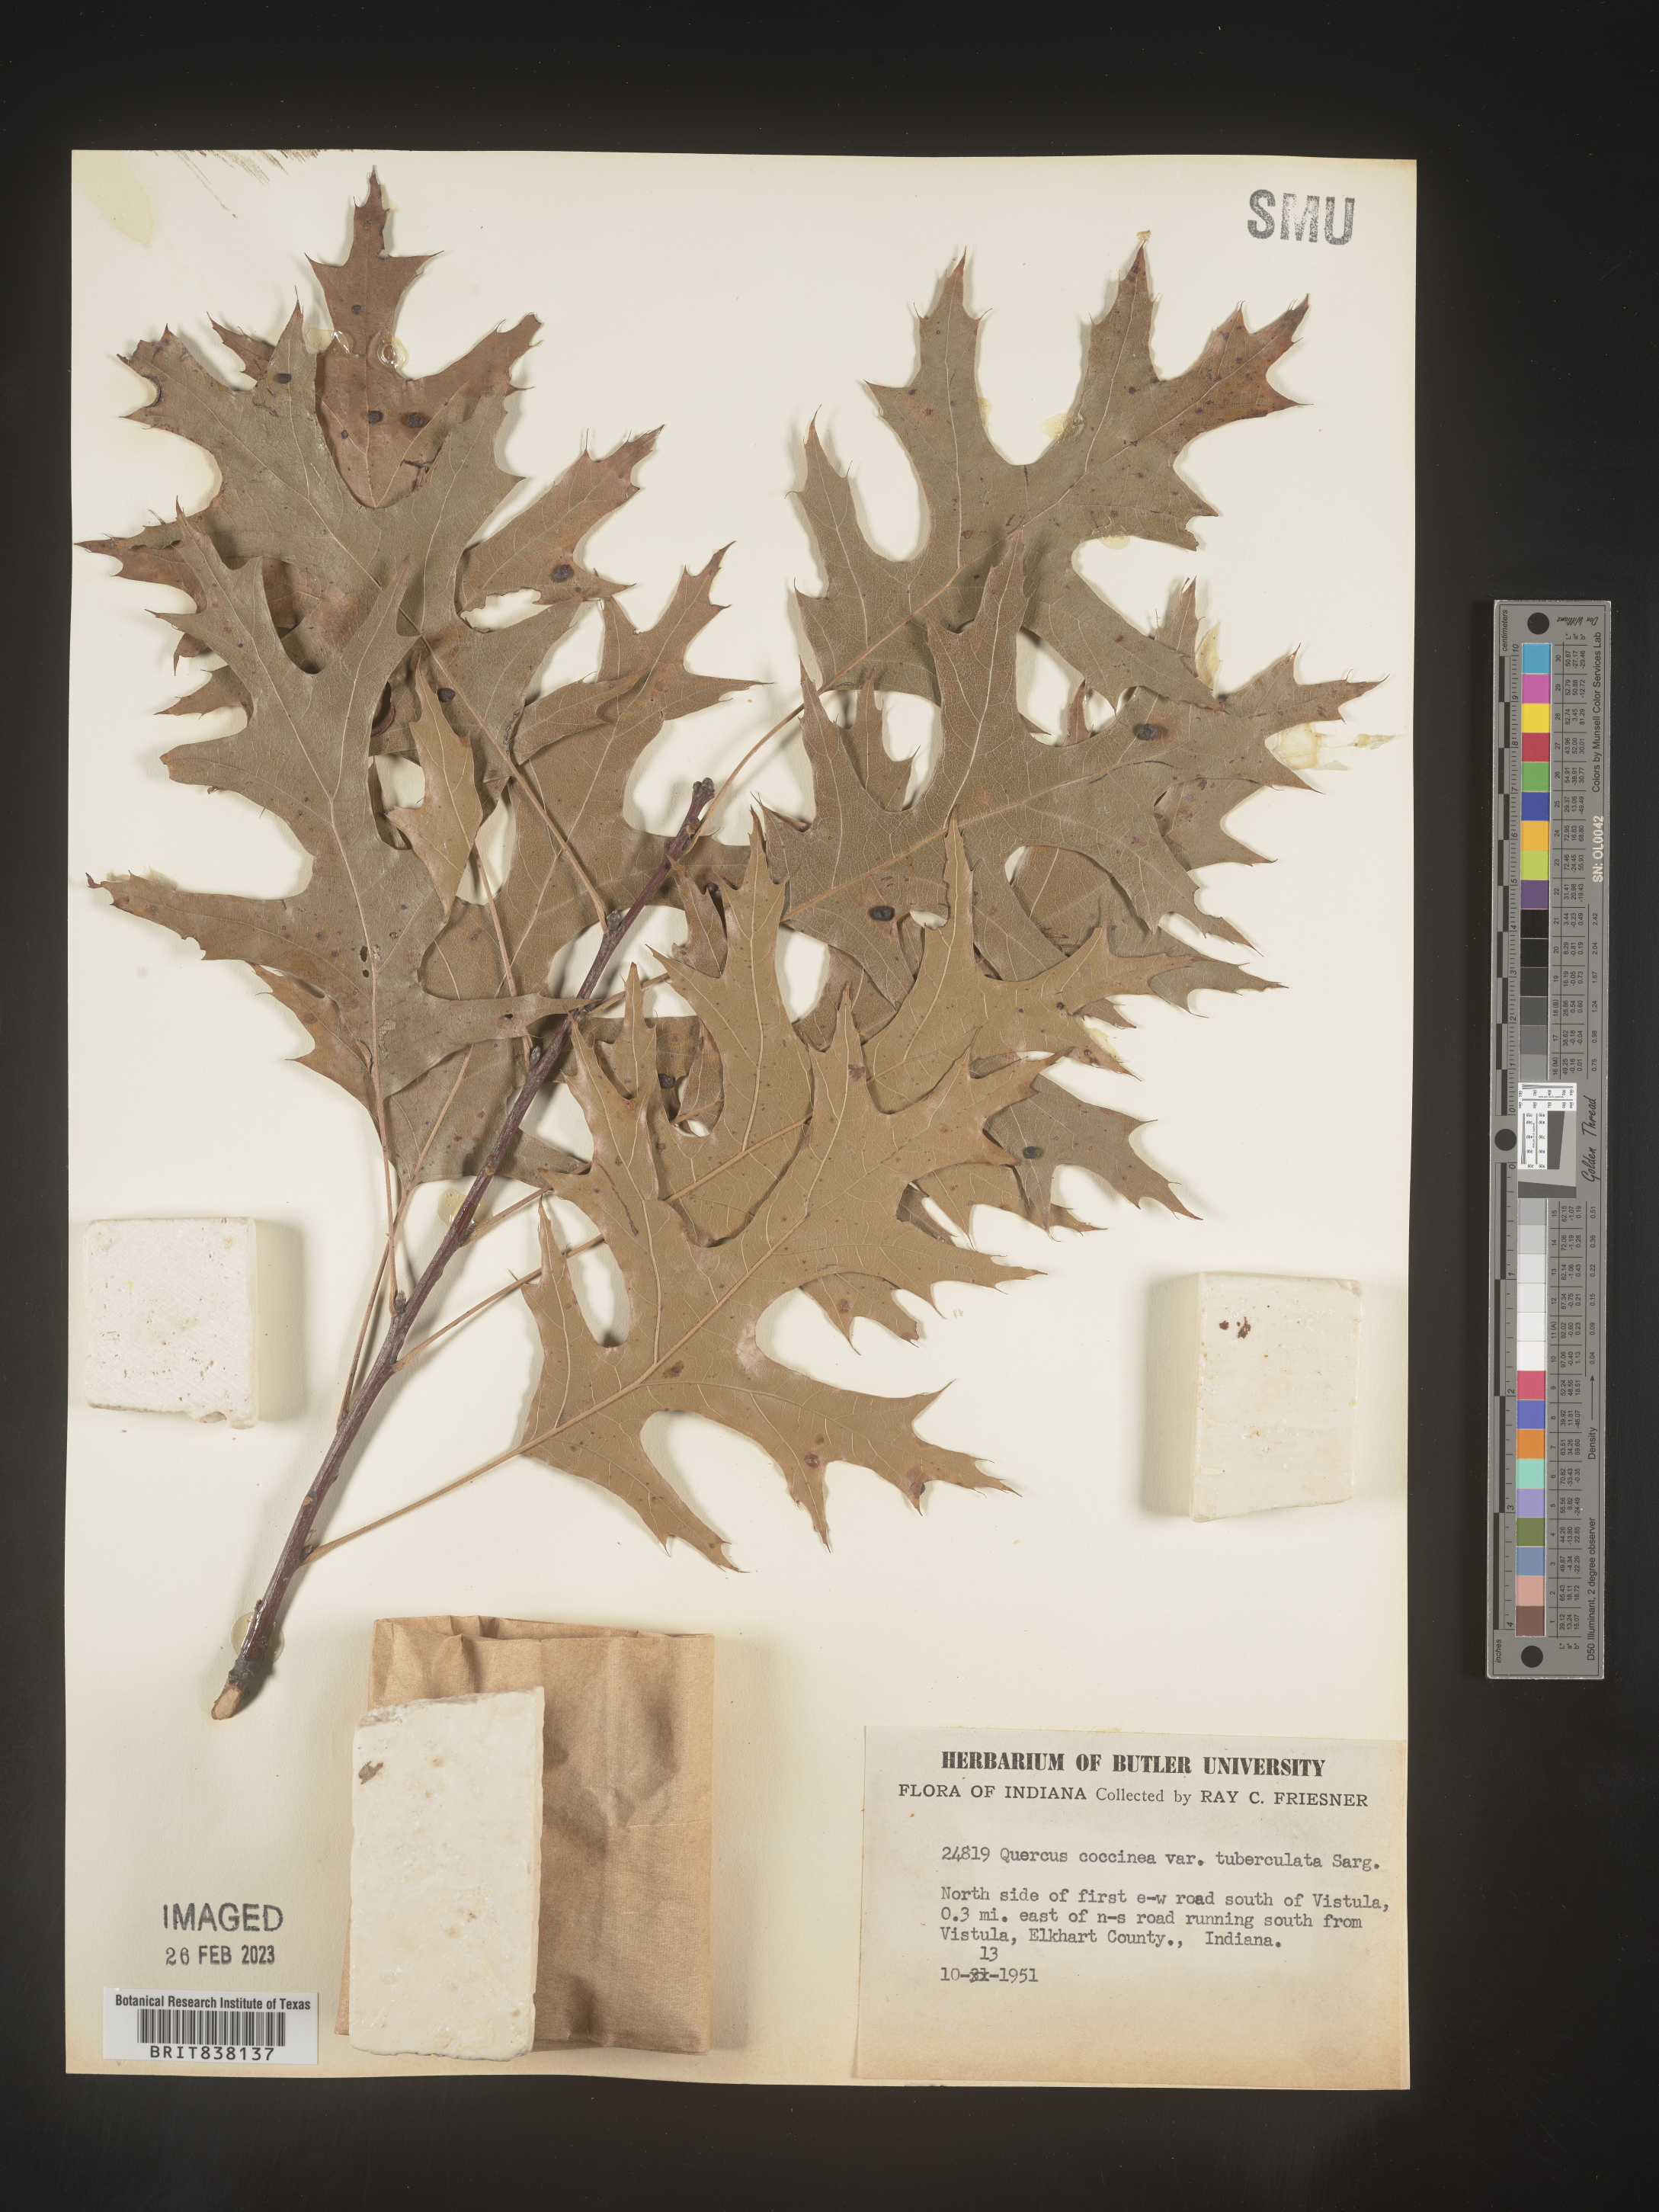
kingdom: Plantae
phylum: Tracheophyta
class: Magnoliopsida
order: Fagales
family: Fagaceae
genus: Quercus
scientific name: Quercus coccinea
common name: Scarlet oak
